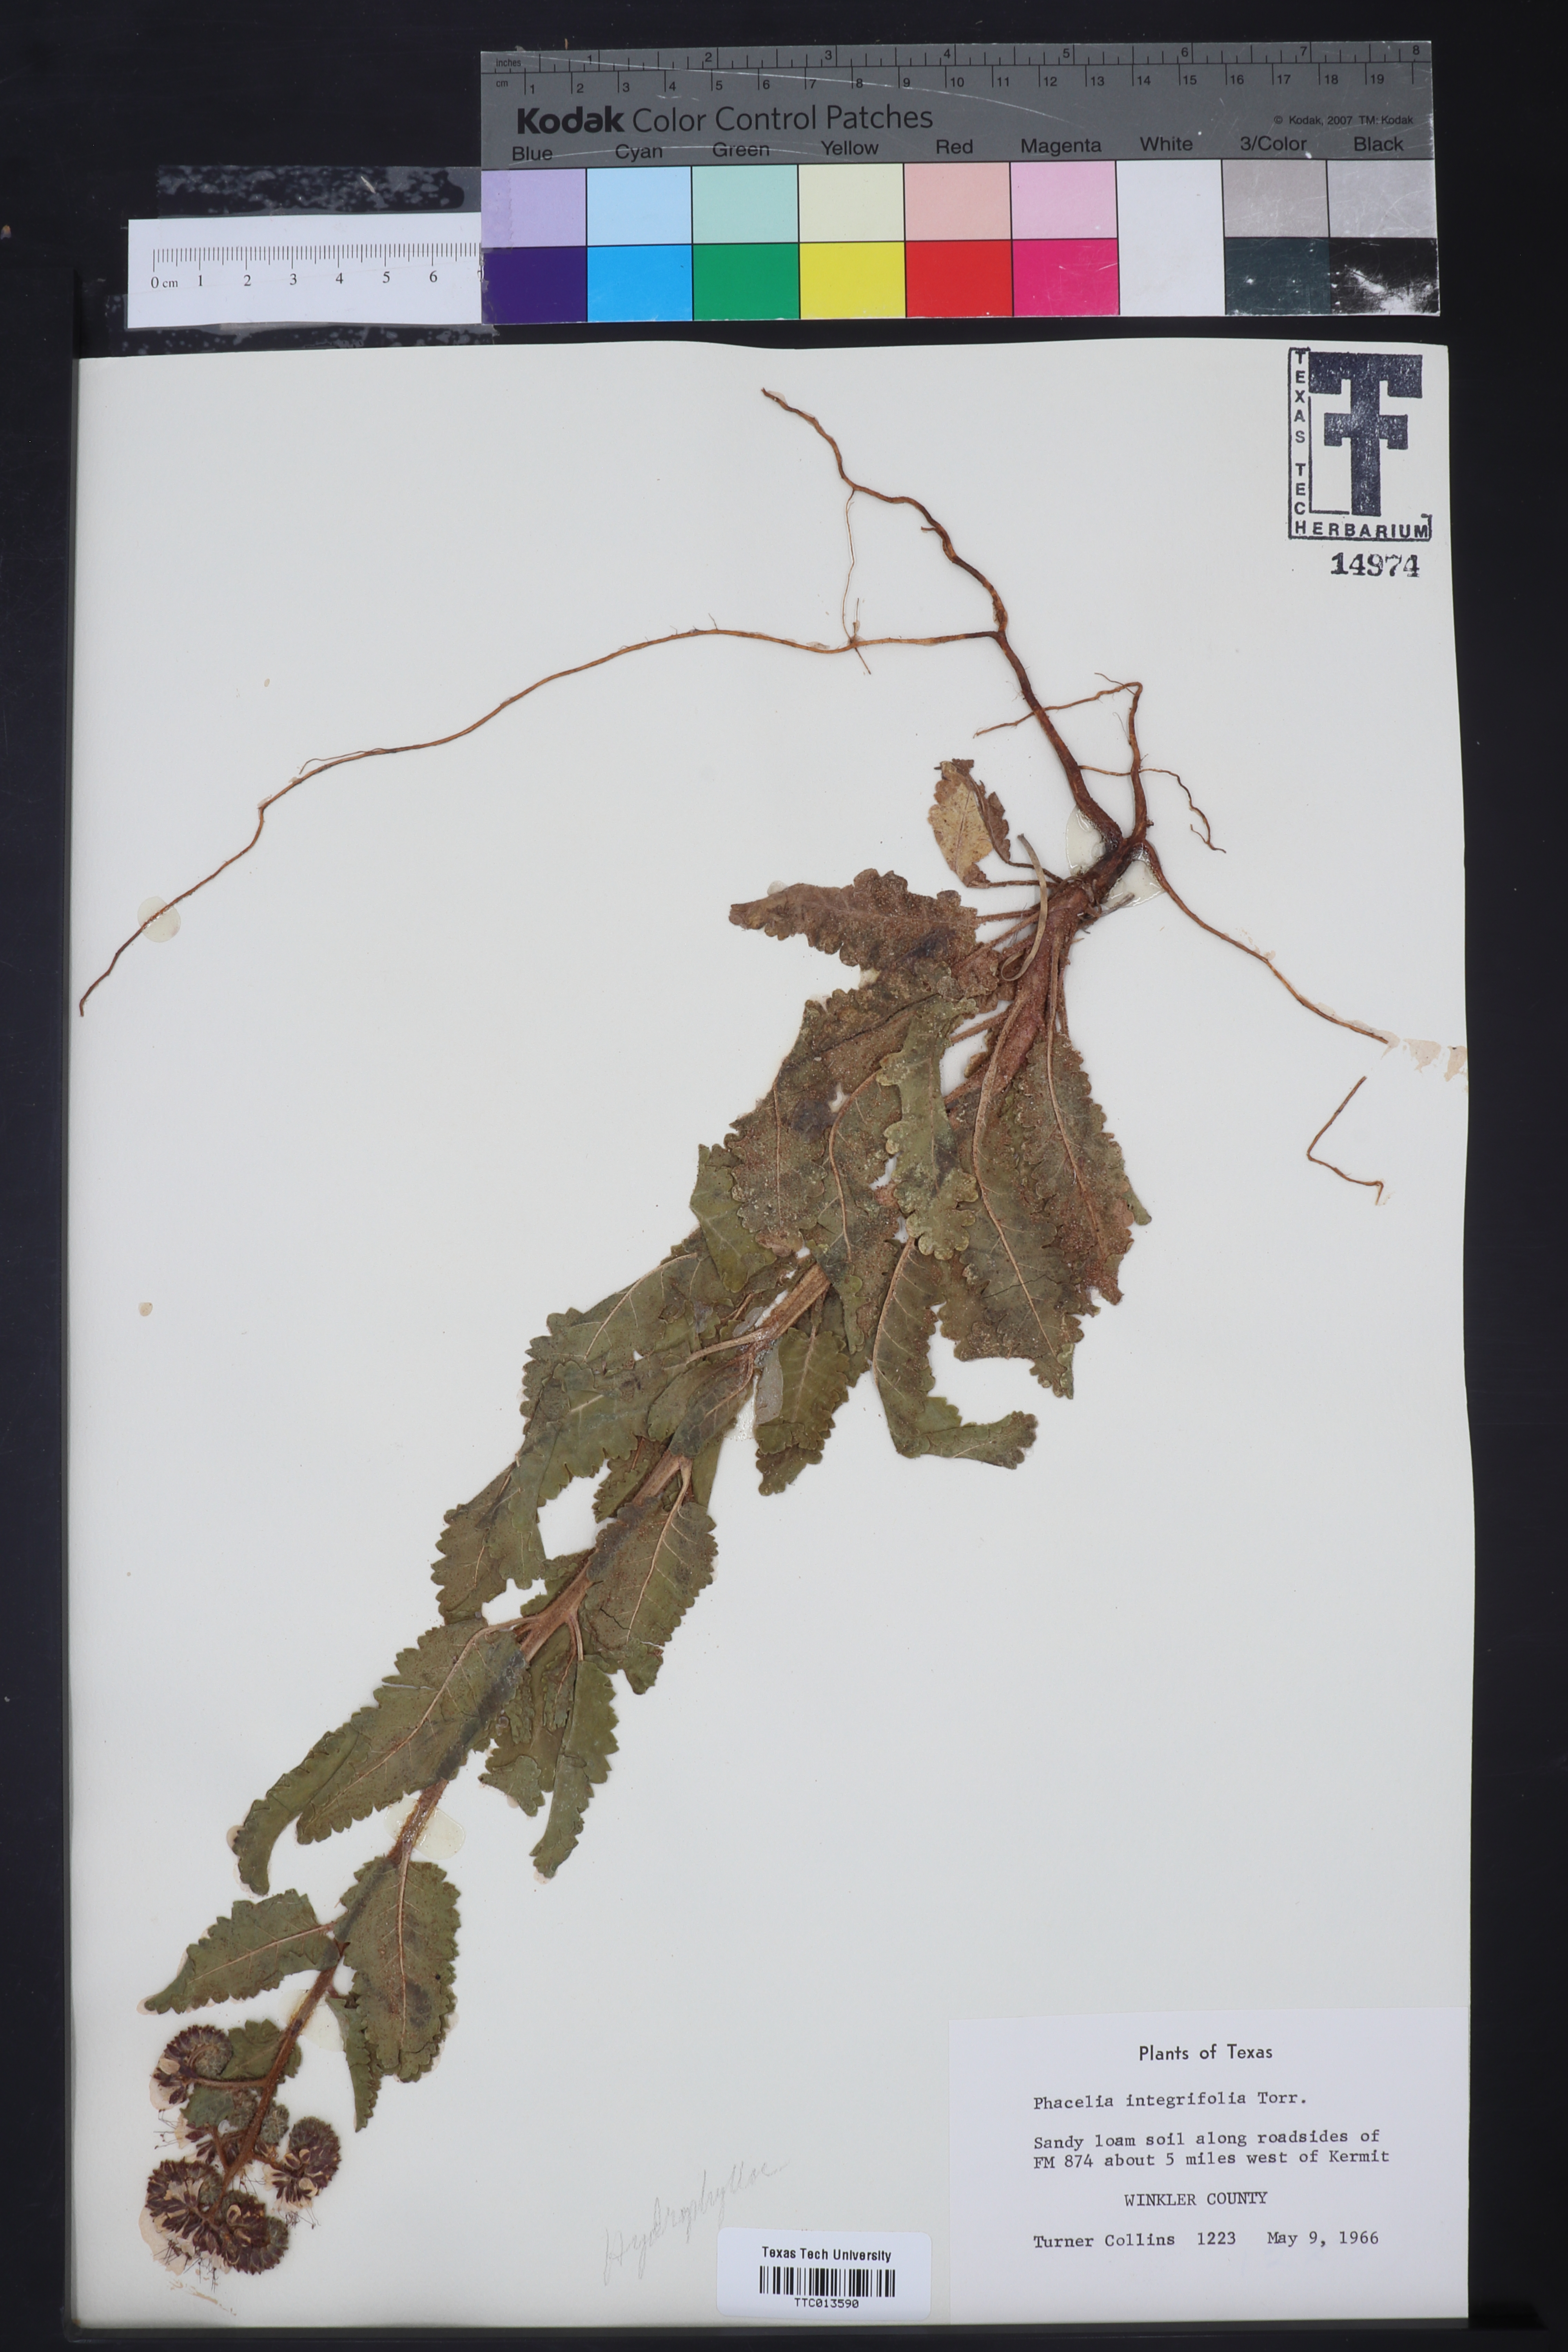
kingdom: Plantae
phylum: Tracheophyta
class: Magnoliopsida
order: Boraginales
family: Hydrophyllaceae
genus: Phacelia
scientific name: Phacelia integrifolia
